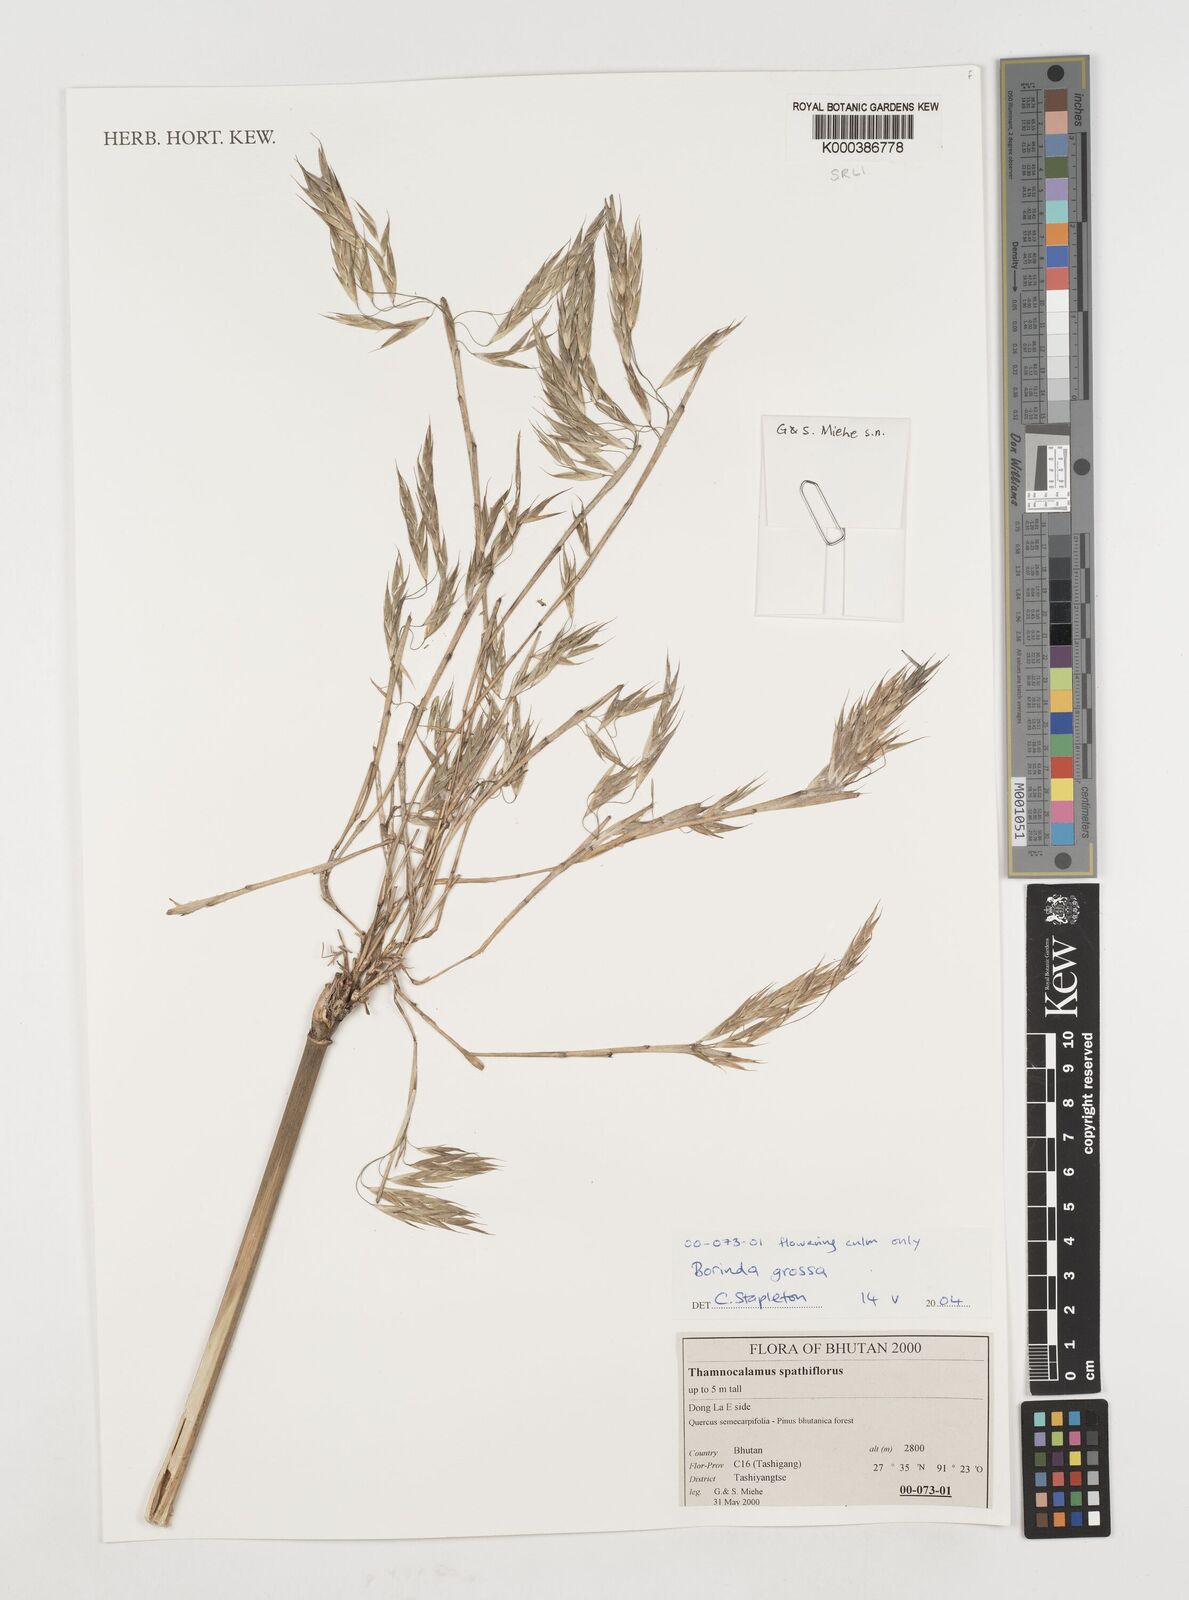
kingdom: Plantae
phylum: Tracheophyta
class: Liliopsida
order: Poales
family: Poaceae
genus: Borinda
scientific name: Borinda grossa
